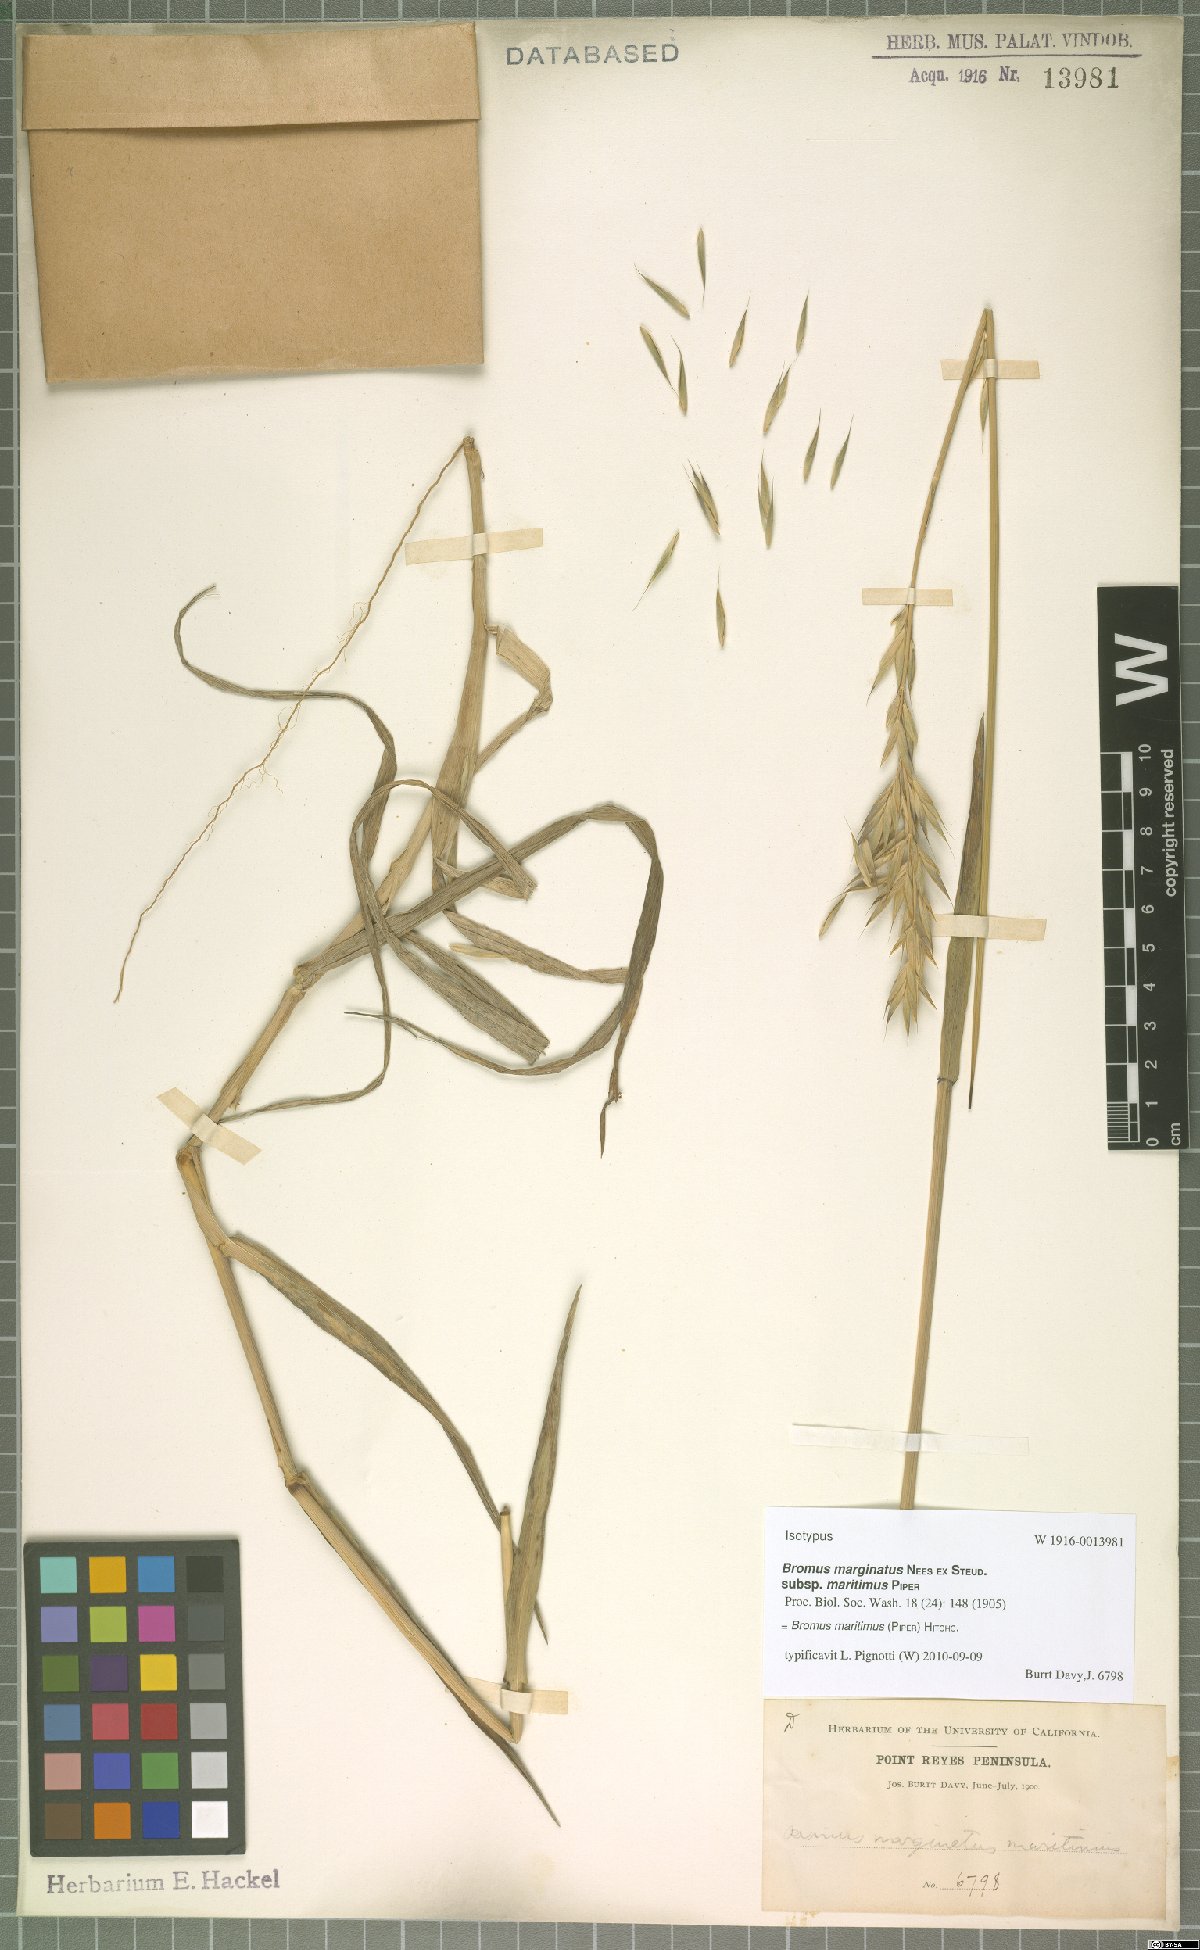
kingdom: Plantae
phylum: Tracheophyta
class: Liliopsida
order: Poales
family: Poaceae
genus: Bromus
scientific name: Bromus maritimus
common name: Maritime brome
